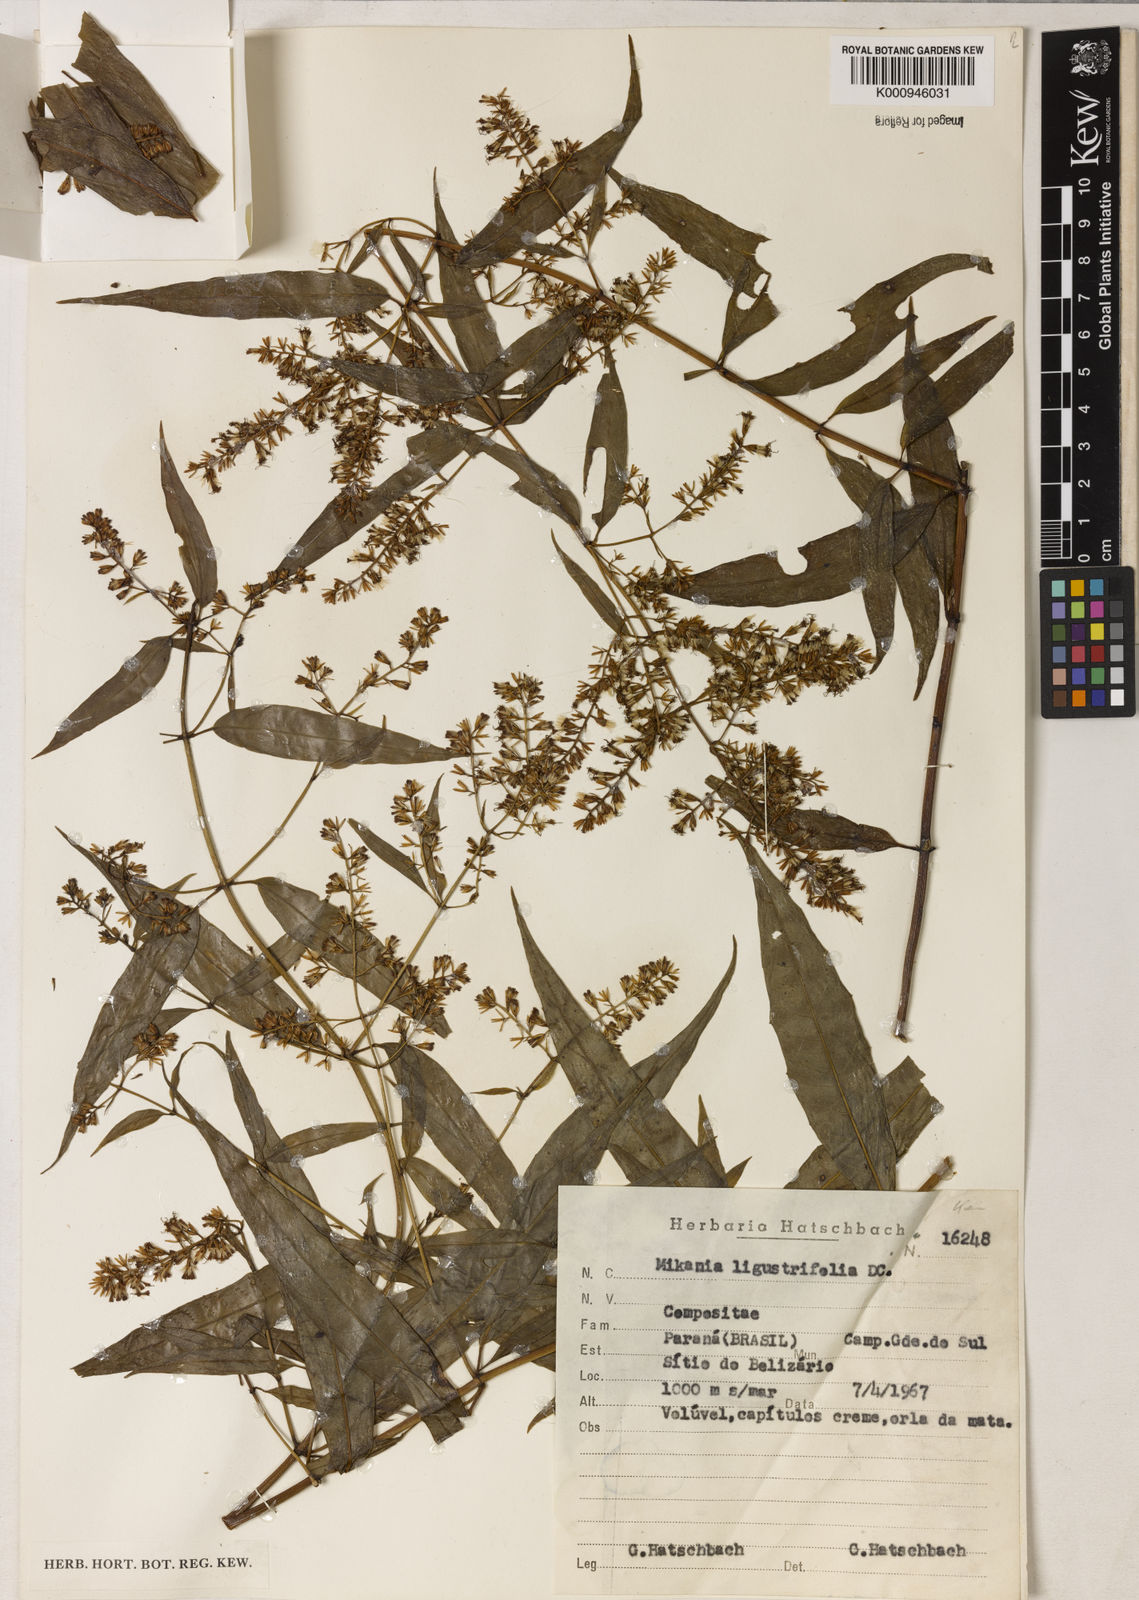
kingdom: Plantae
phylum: Tracheophyta
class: Magnoliopsida
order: Asterales
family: Asteraceae
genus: Mikania
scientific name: Mikania ligustrifolia
